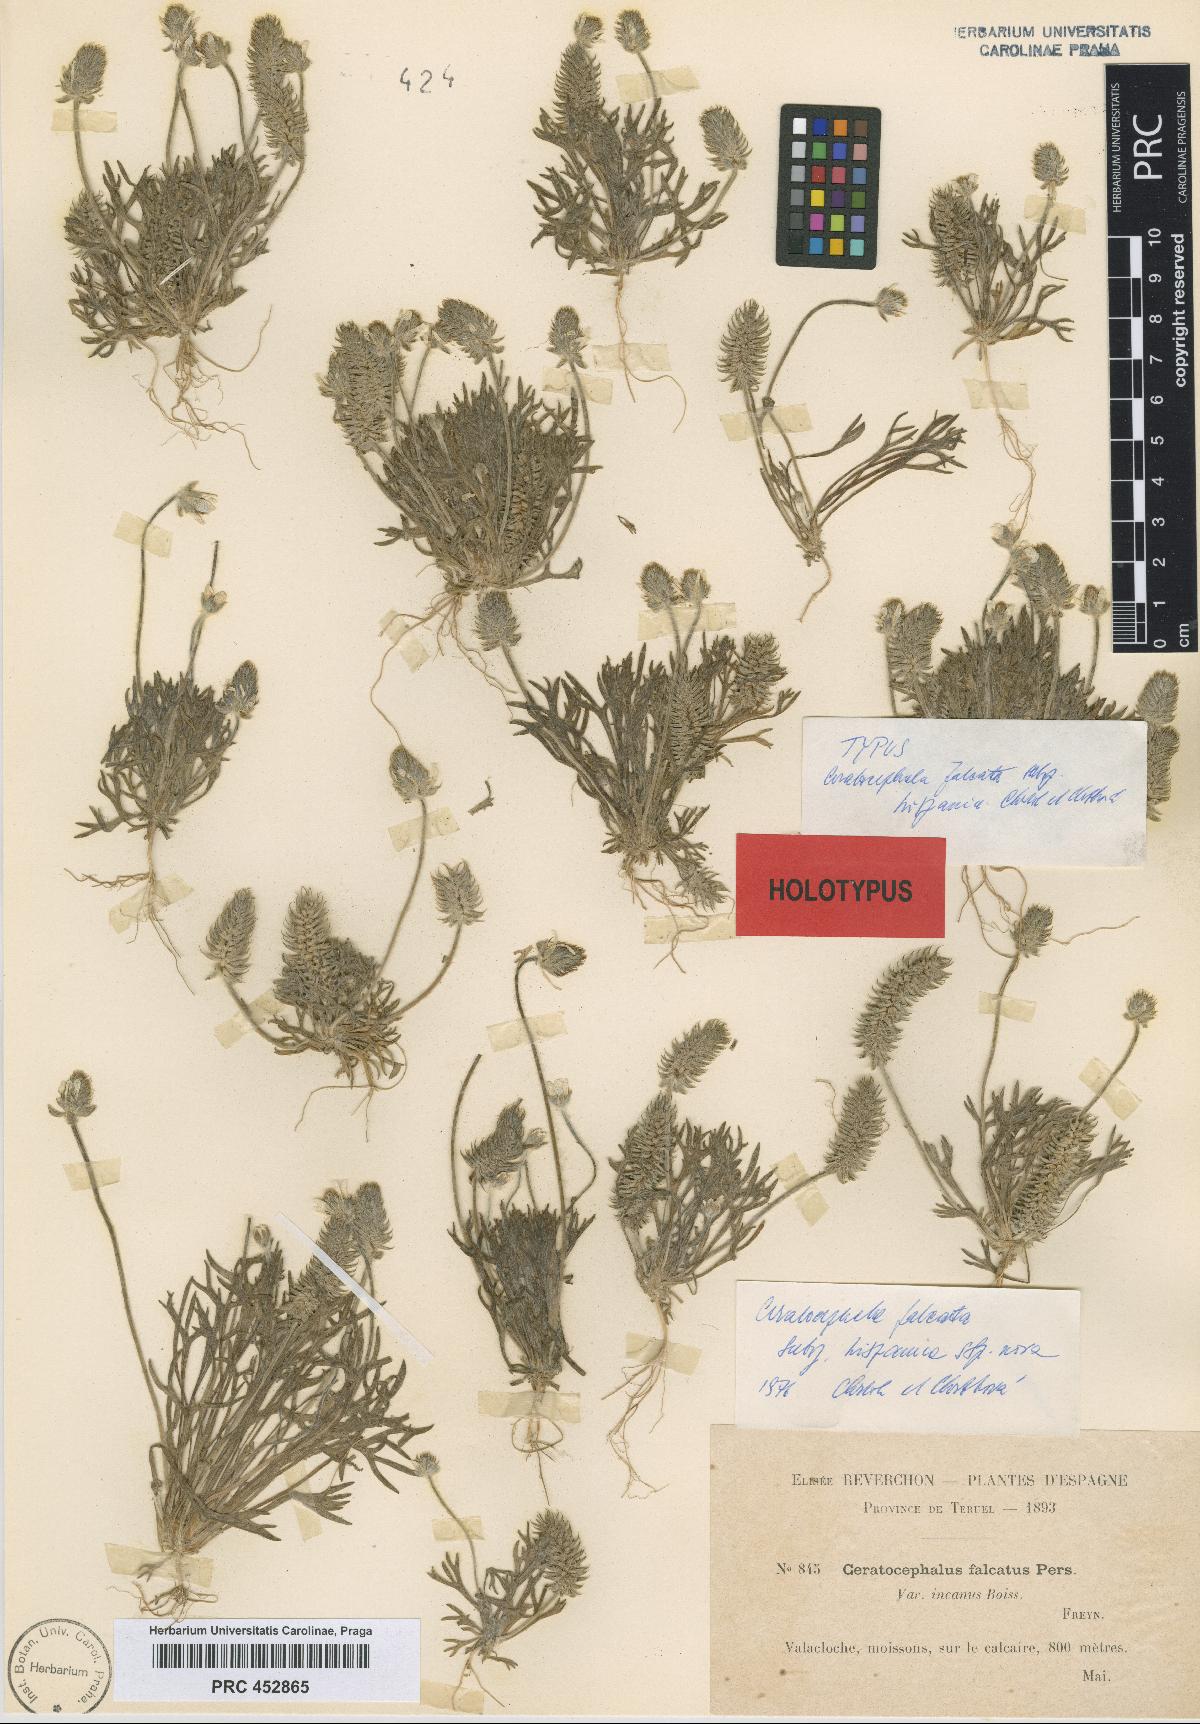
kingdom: Plantae
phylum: Tracheophyta
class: Magnoliopsida
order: Ranunculales
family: Ranunculaceae
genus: Ceratocephala
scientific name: Ceratocephala falcata
